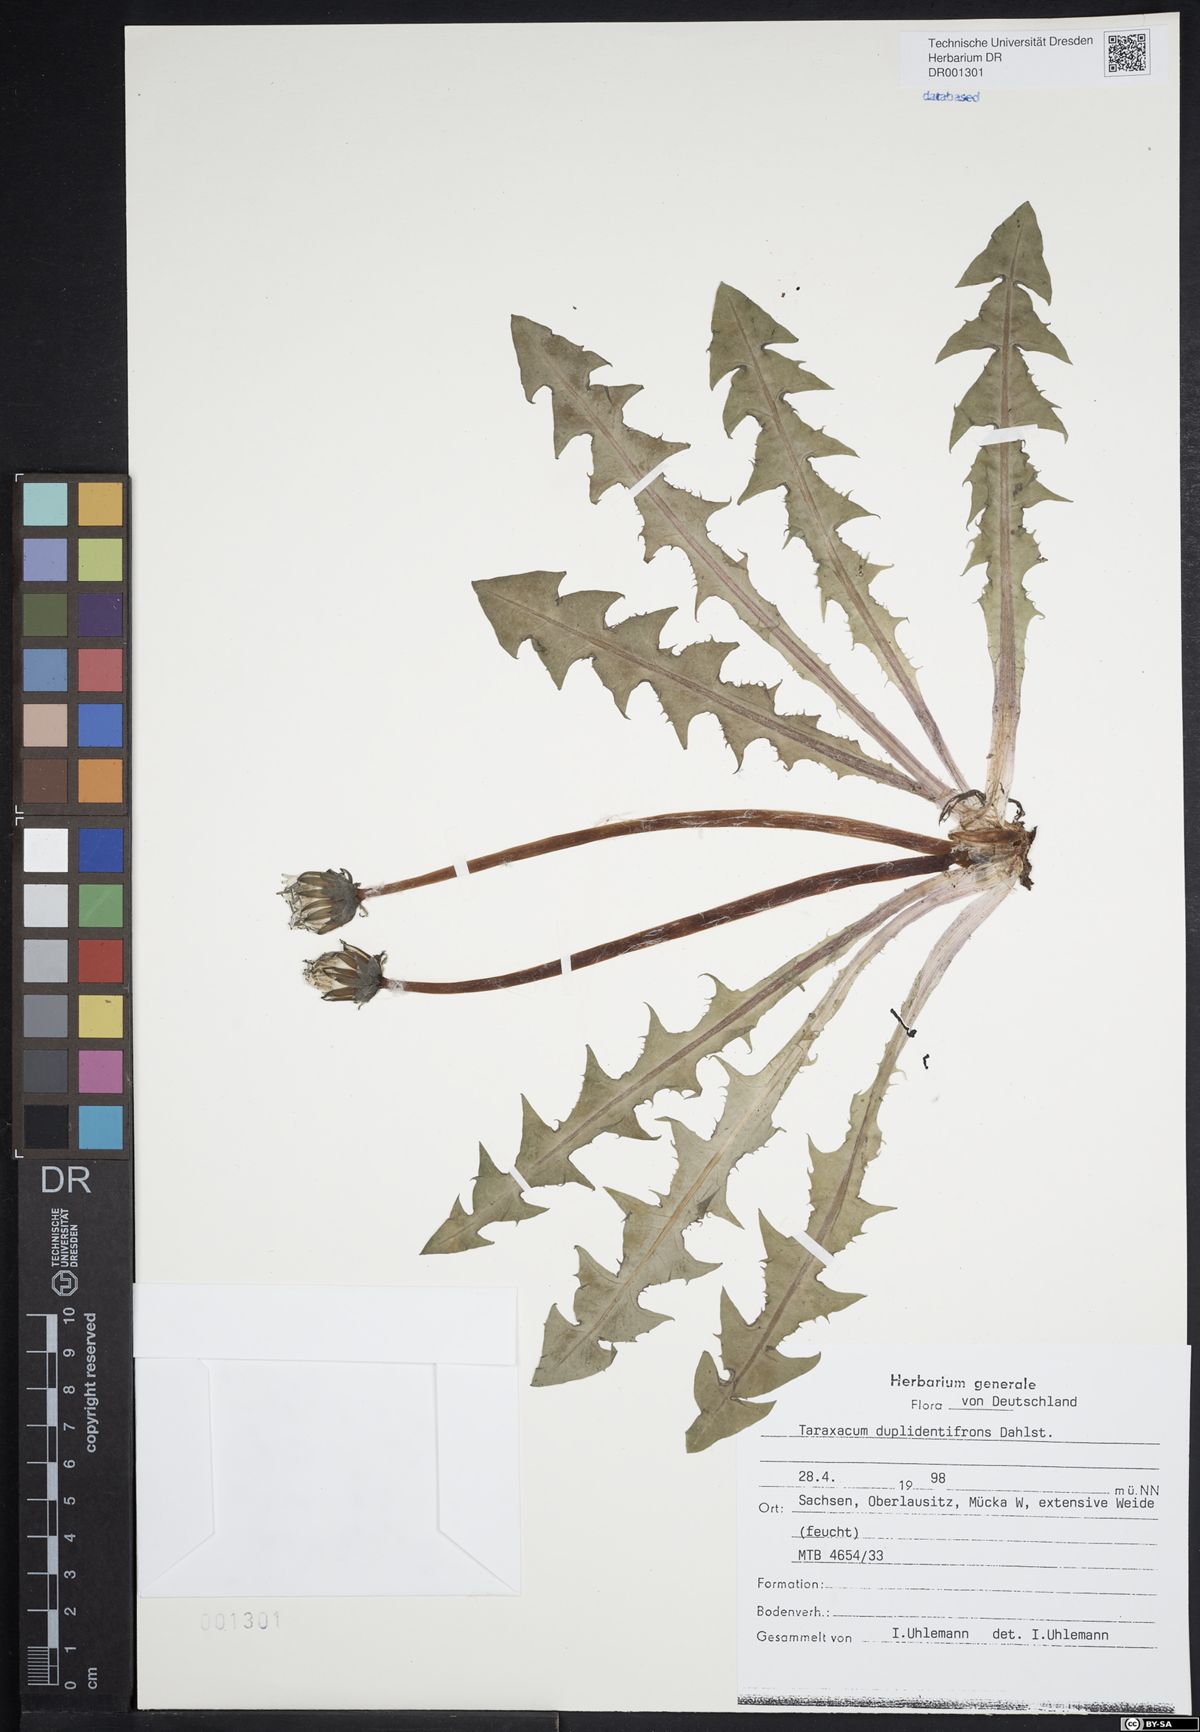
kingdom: Plantae
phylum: Tracheophyta
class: Magnoliopsida
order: Asterales
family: Asteraceae
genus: Taraxacum
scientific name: Taraxacum duplidentifrons
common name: Double-toothed dandelion
